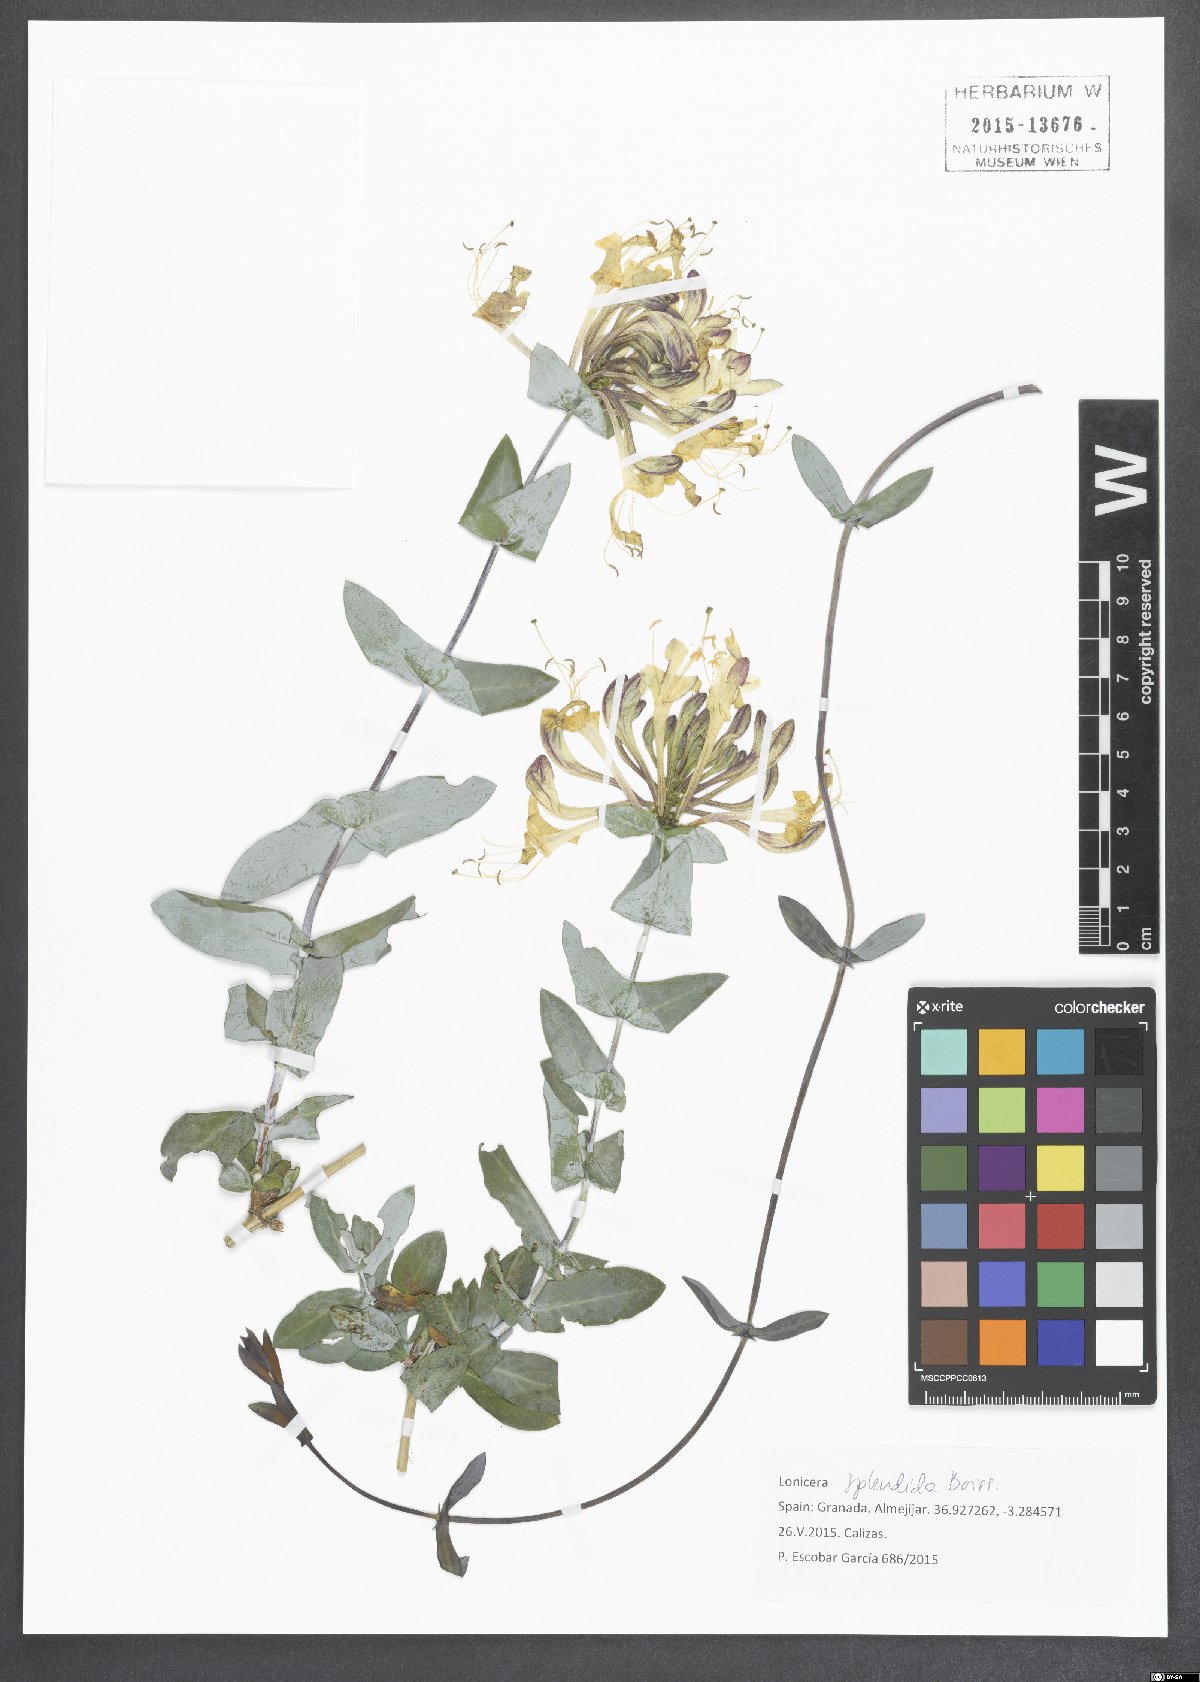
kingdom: Plantae
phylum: Tracheophyta
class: Magnoliopsida
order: Dipsacales
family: Caprifoliaceae
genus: Lonicera
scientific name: Lonicera splendida
